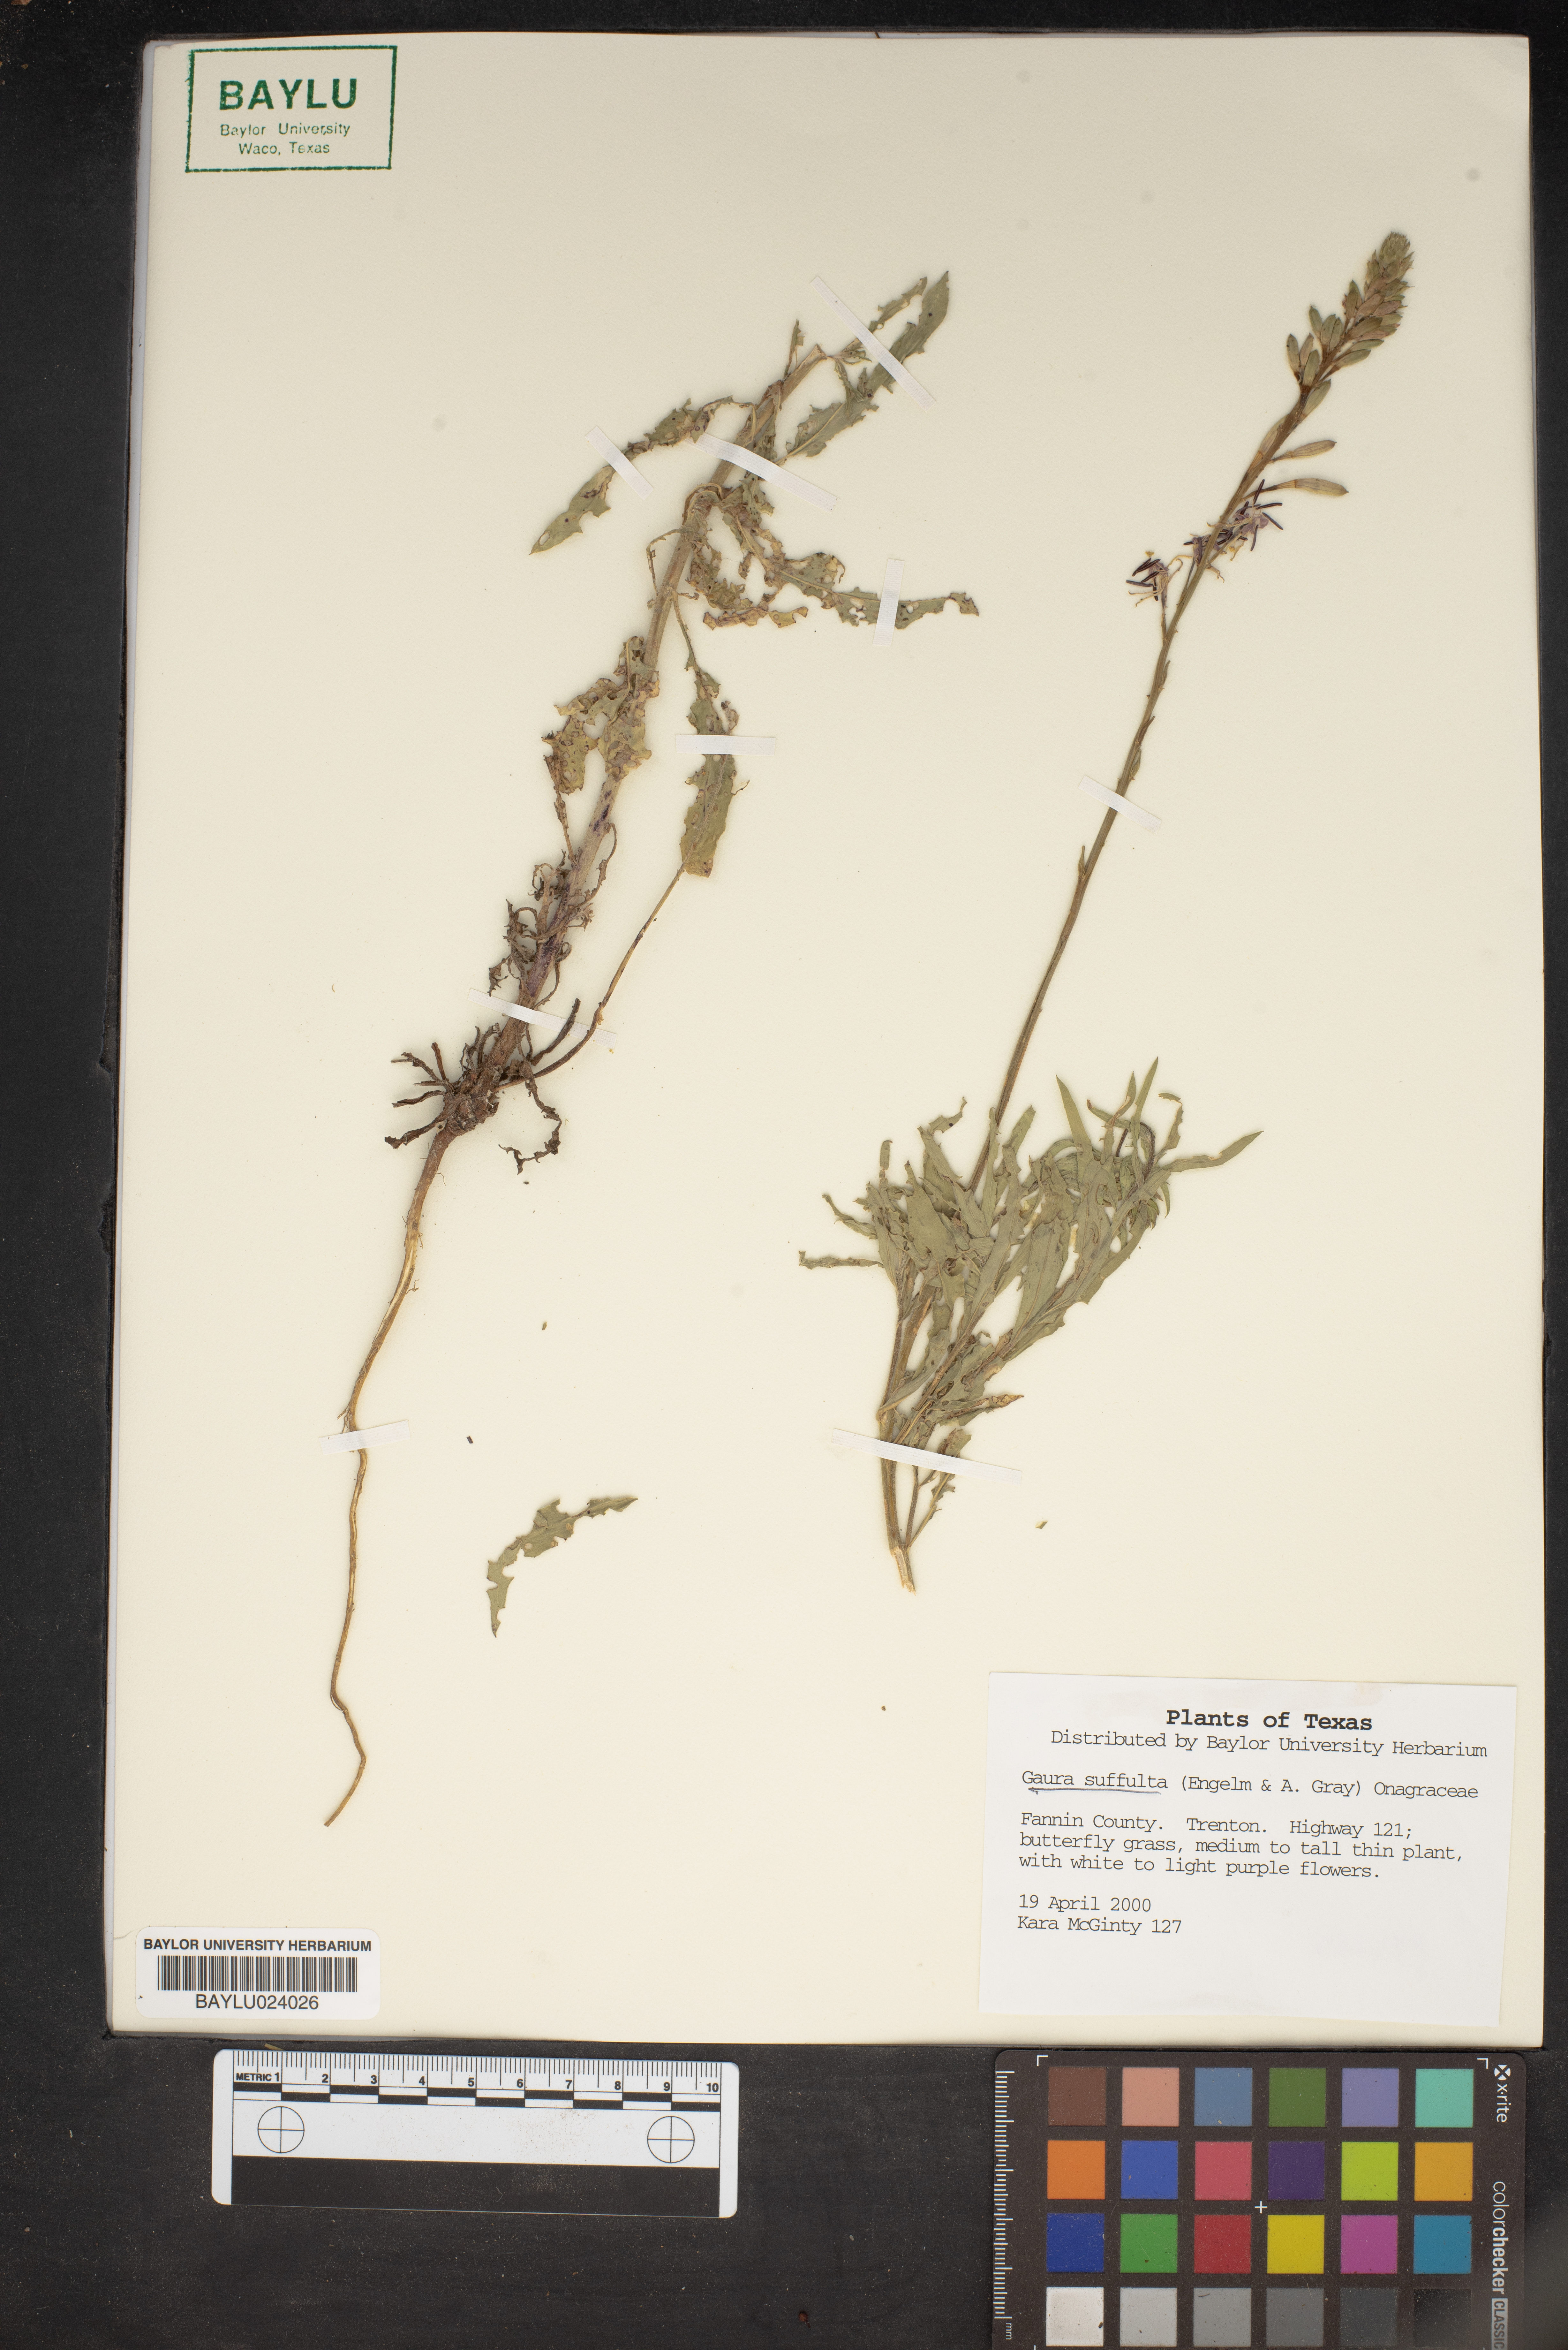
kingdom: Plantae
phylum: Tracheophyta
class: Magnoliopsida
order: Myrtales
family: Onagraceae
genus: Oenothera
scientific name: Oenothera Gaura suffulta
